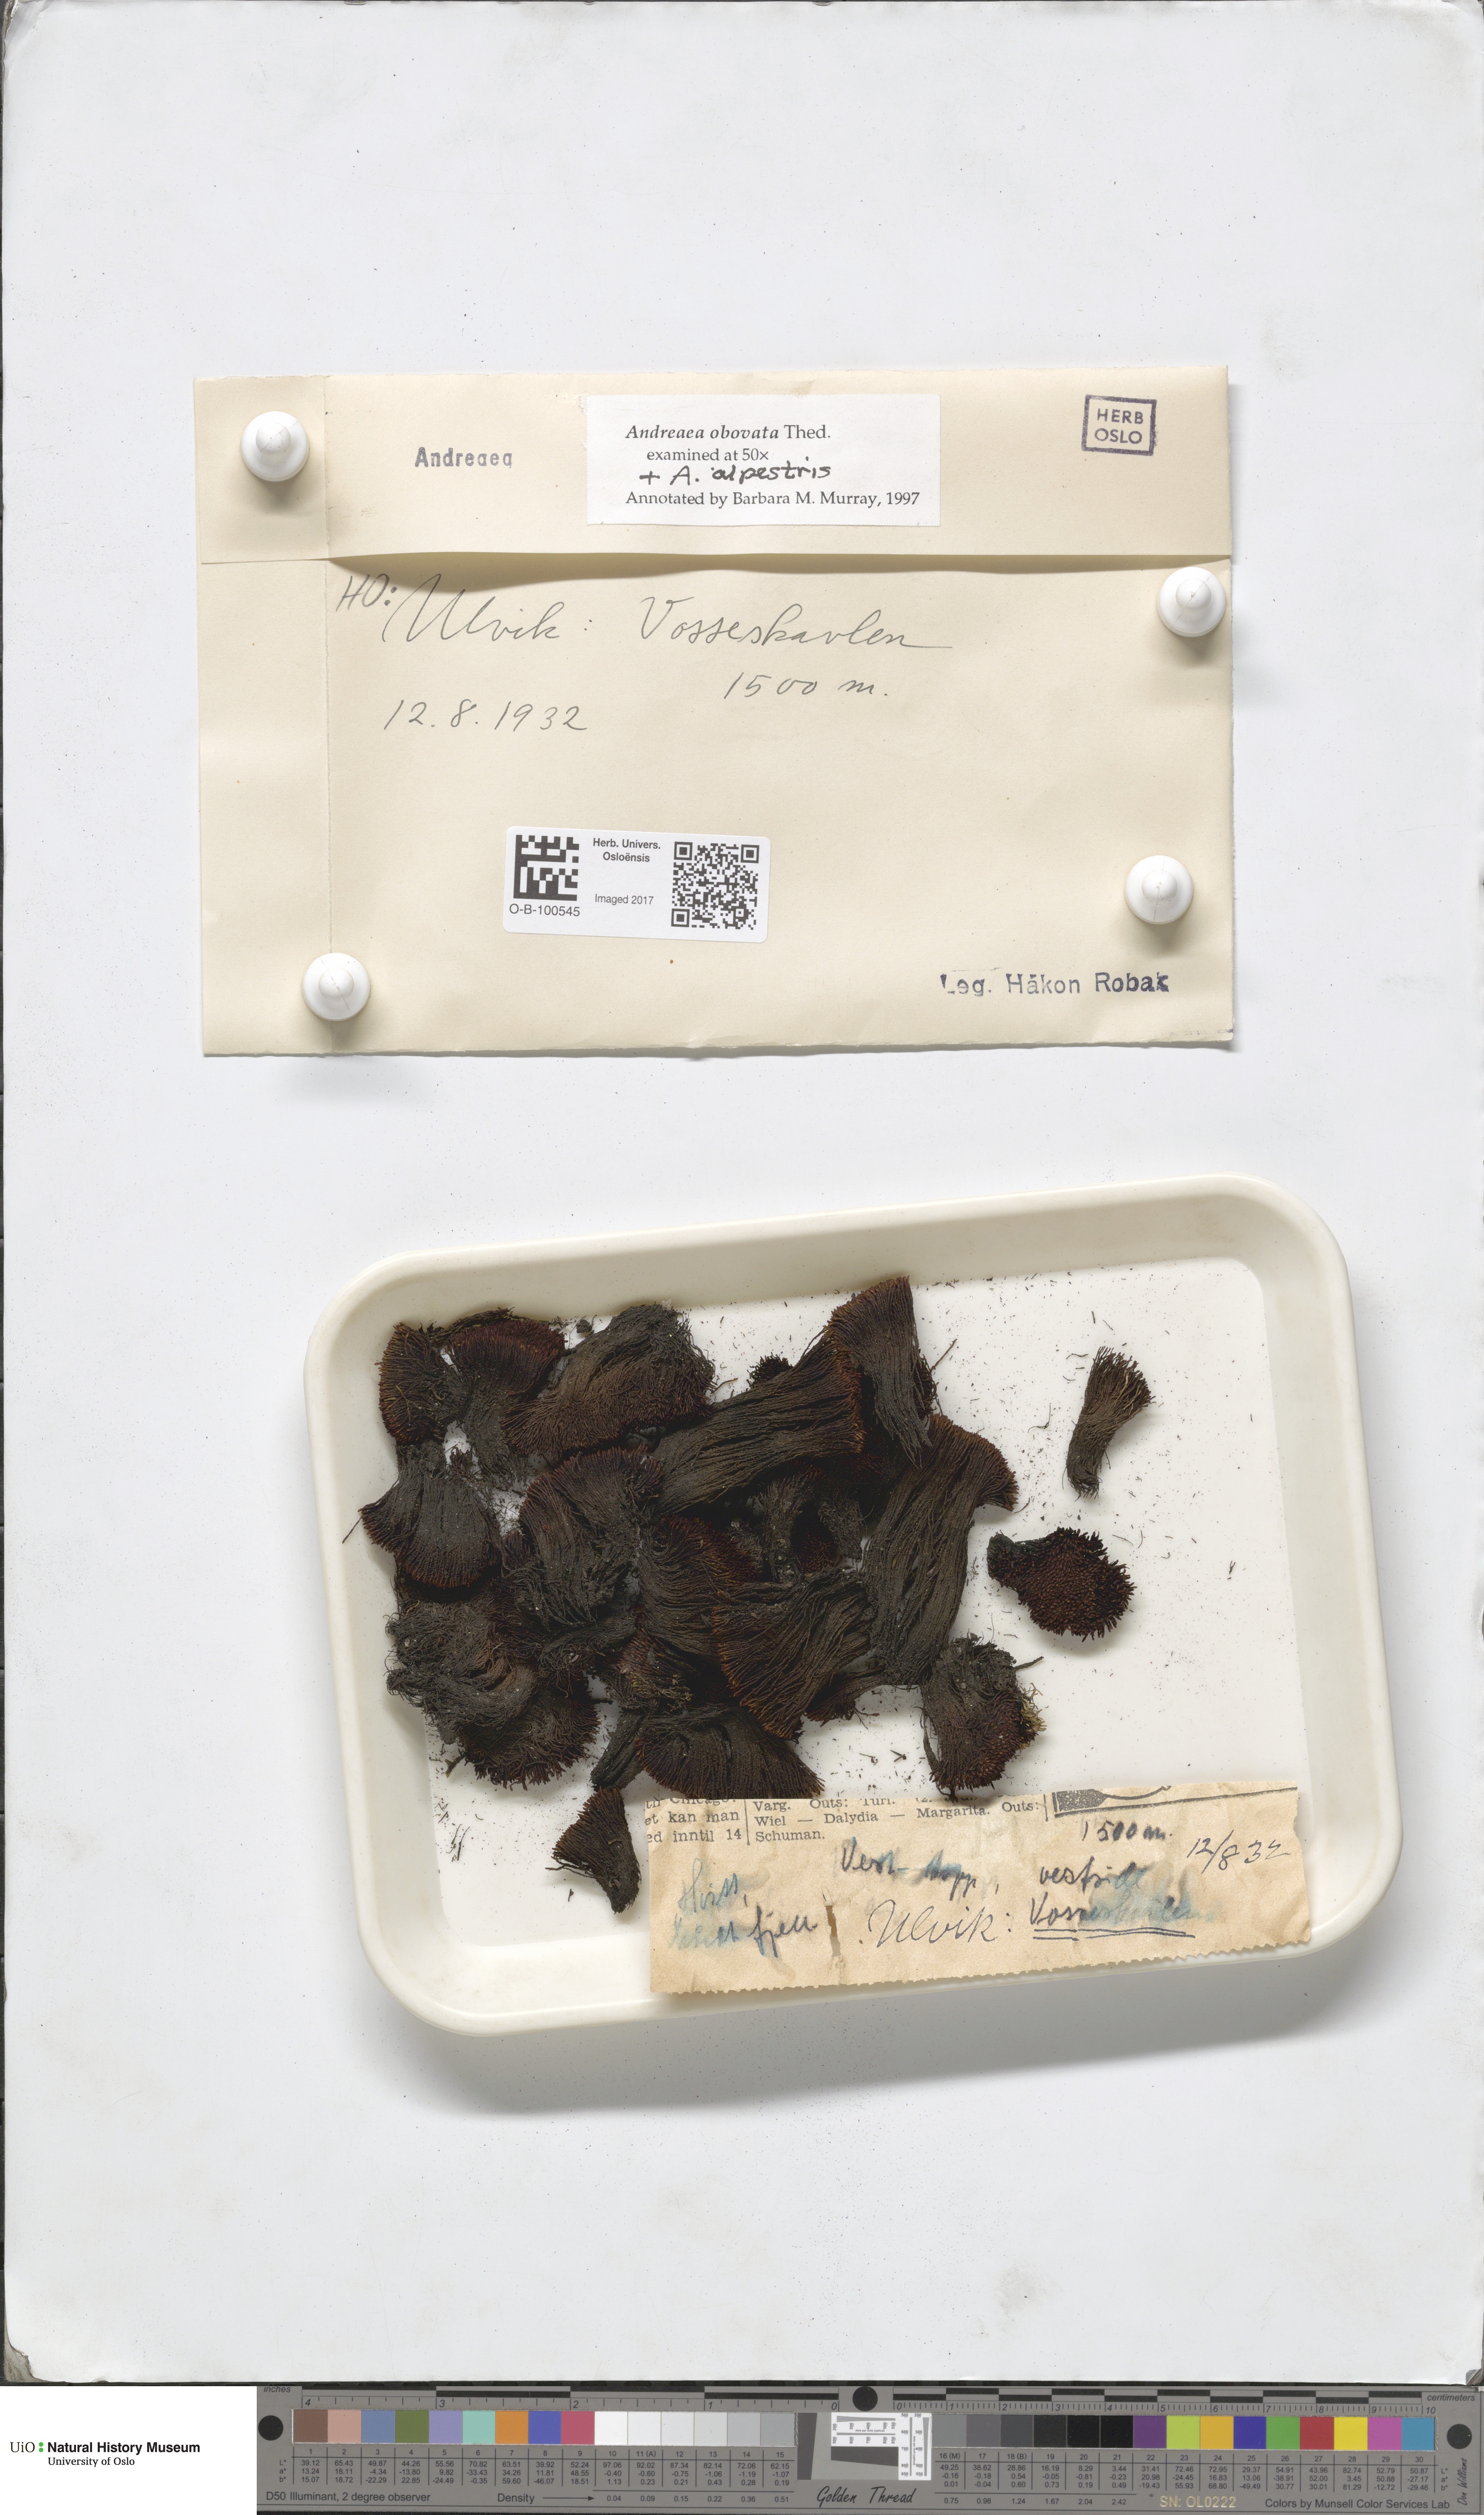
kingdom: Plantae
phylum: Bryophyta
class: Andreaeopsida
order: Andreaeales
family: Andreaeaceae
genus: Andreaea
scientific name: Andreaea alpina
